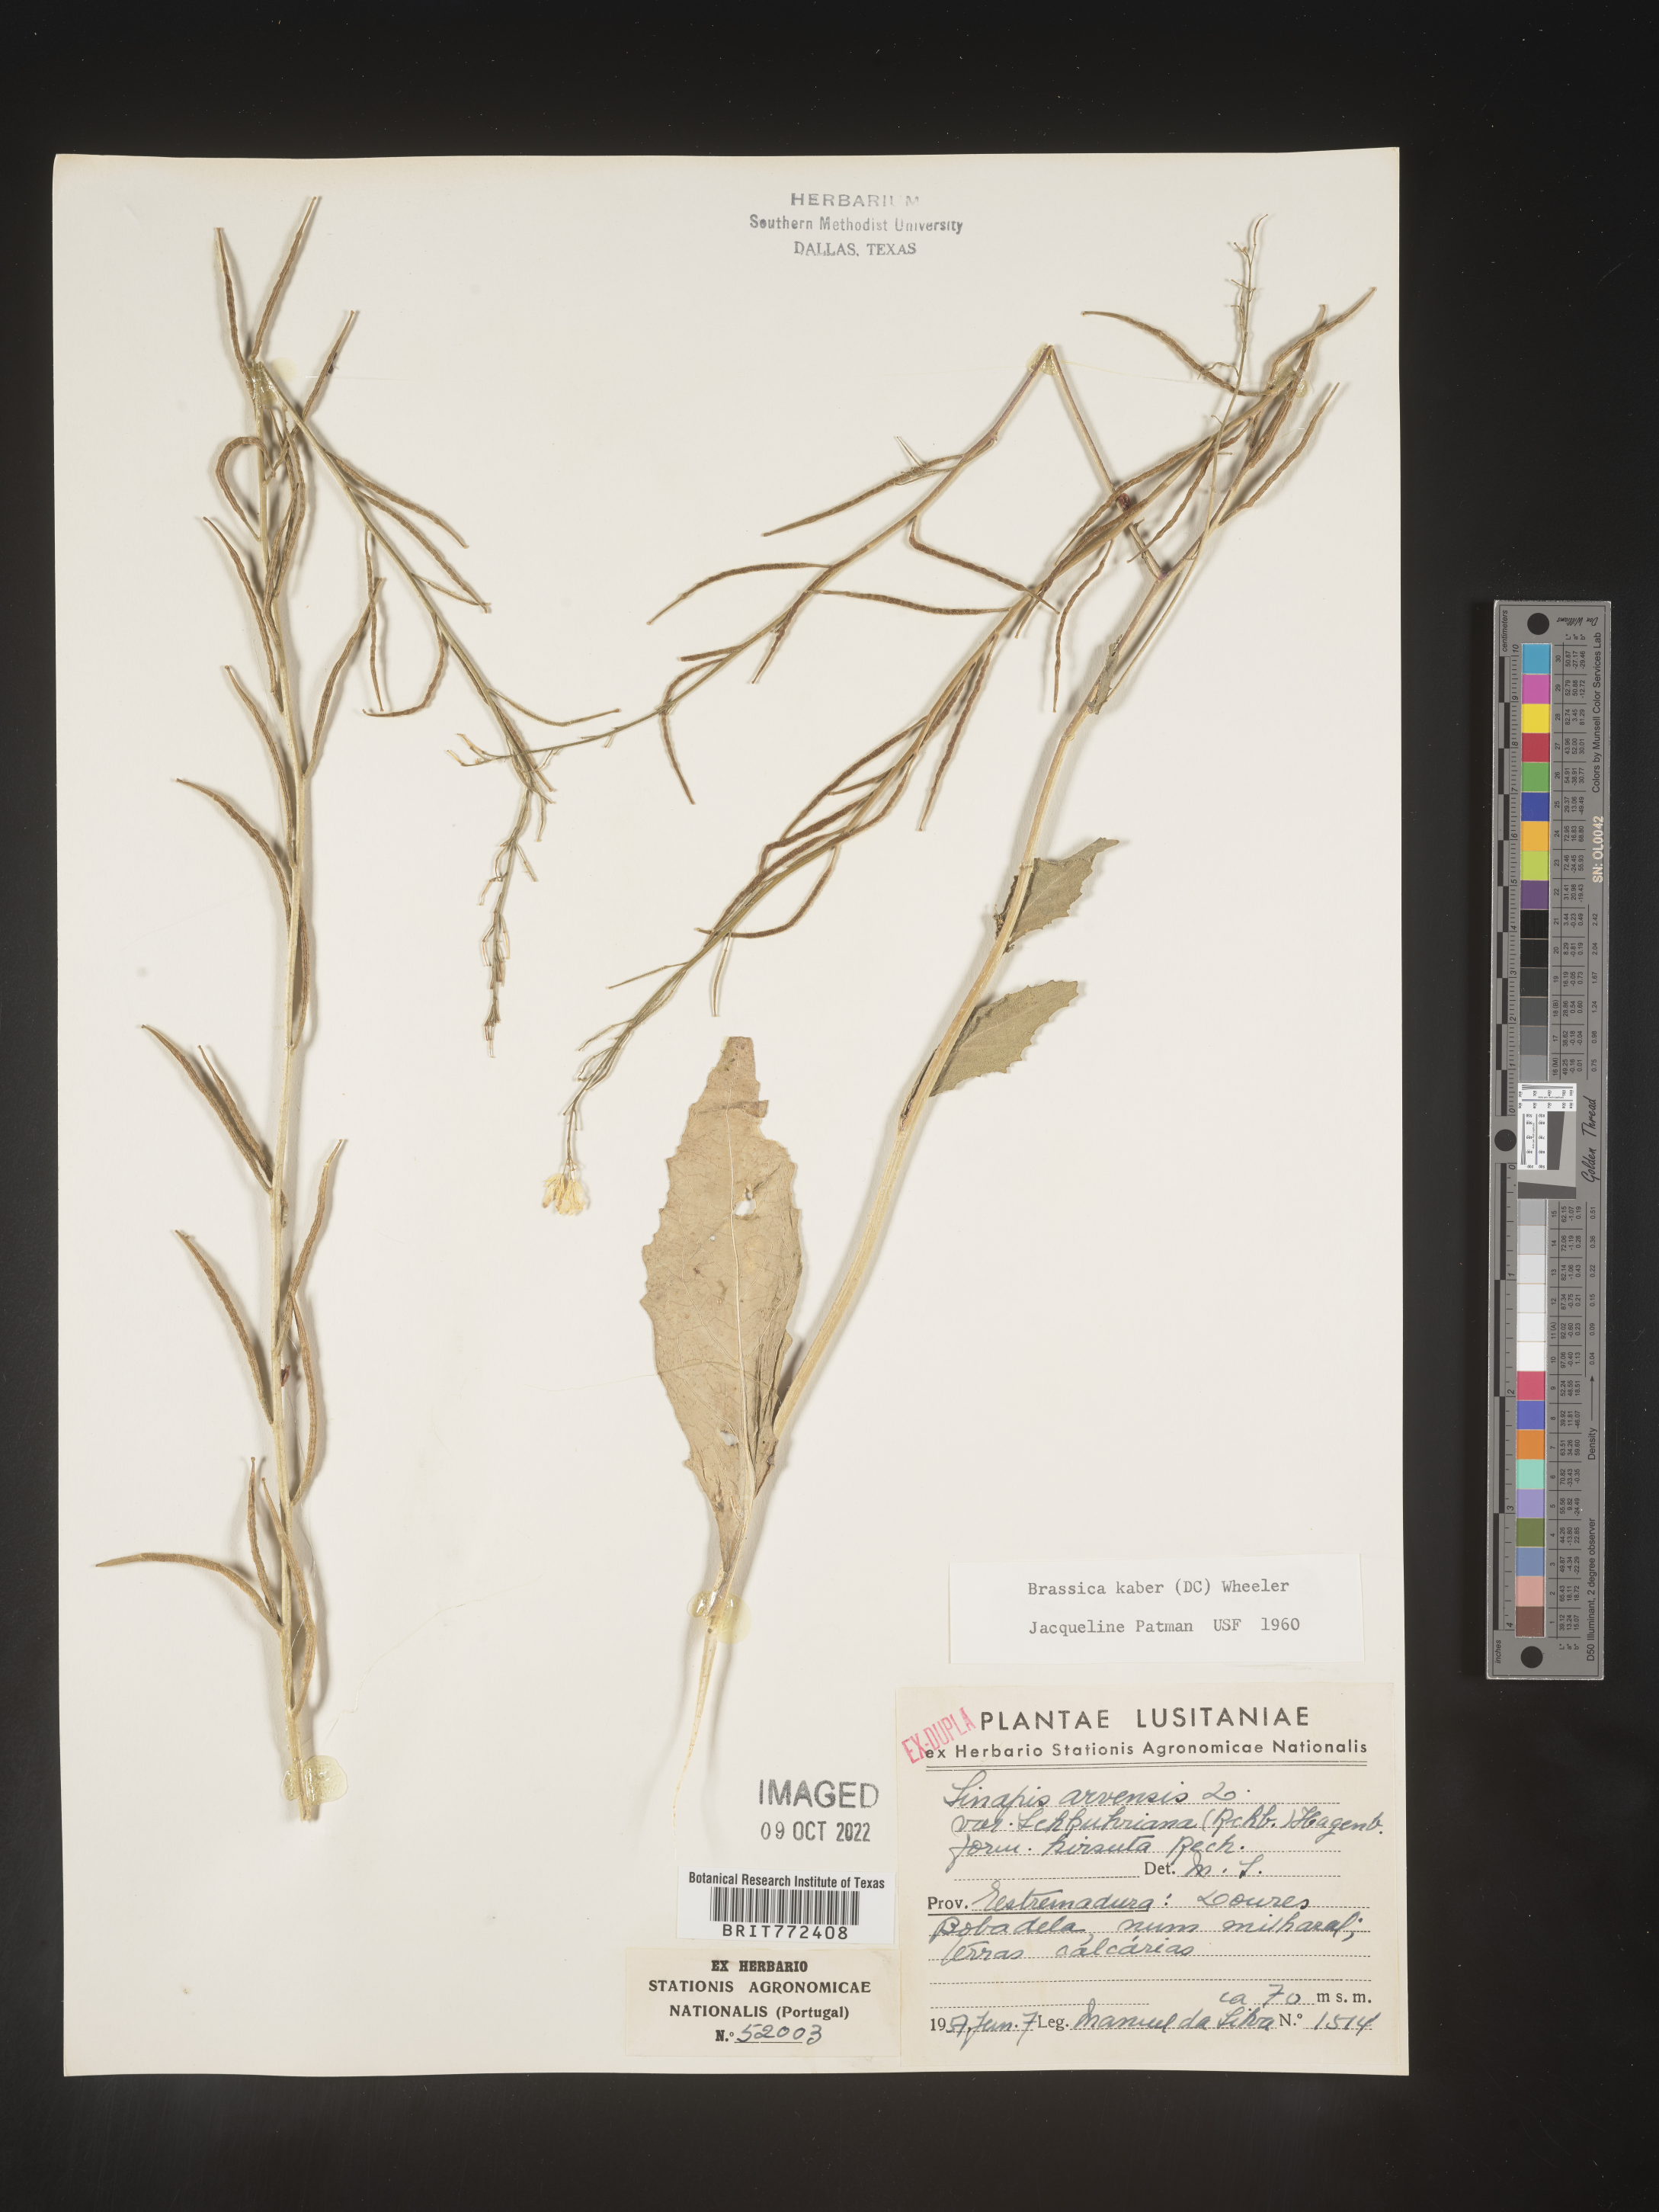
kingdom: Plantae
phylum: Tracheophyta
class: Magnoliopsida
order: Brassicales
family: Brassicaceae
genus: Brassica
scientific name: Brassica
